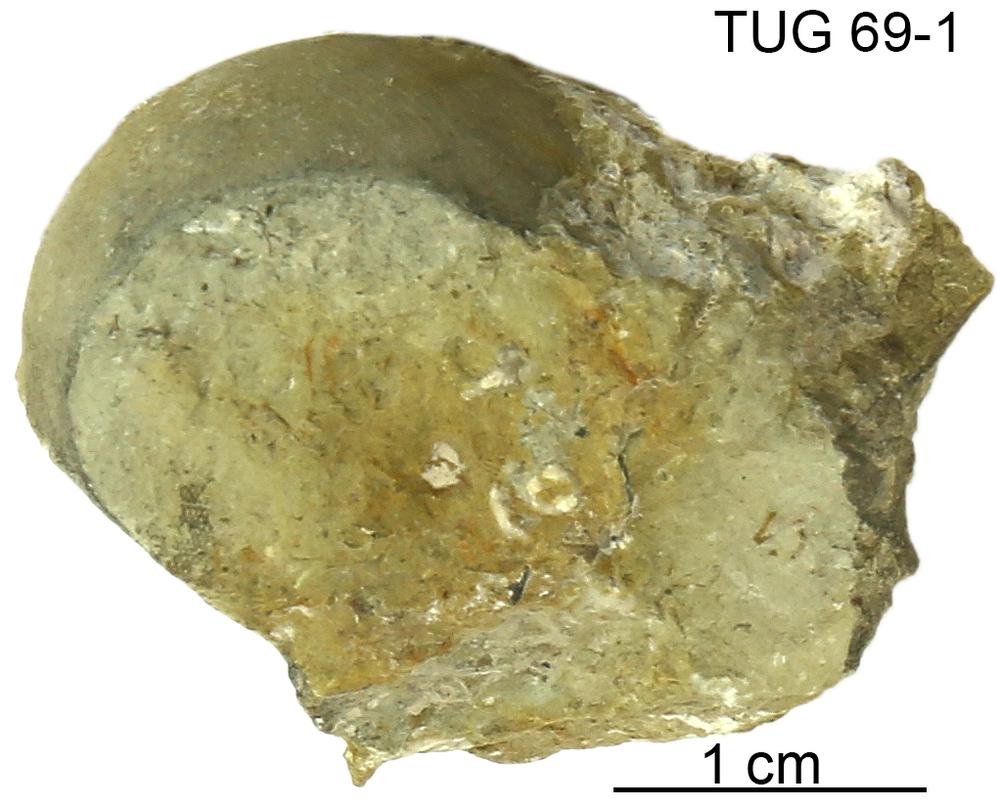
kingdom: Animalia
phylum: Mollusca
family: Bucanellidae
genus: Bucanella
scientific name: Bucanella
